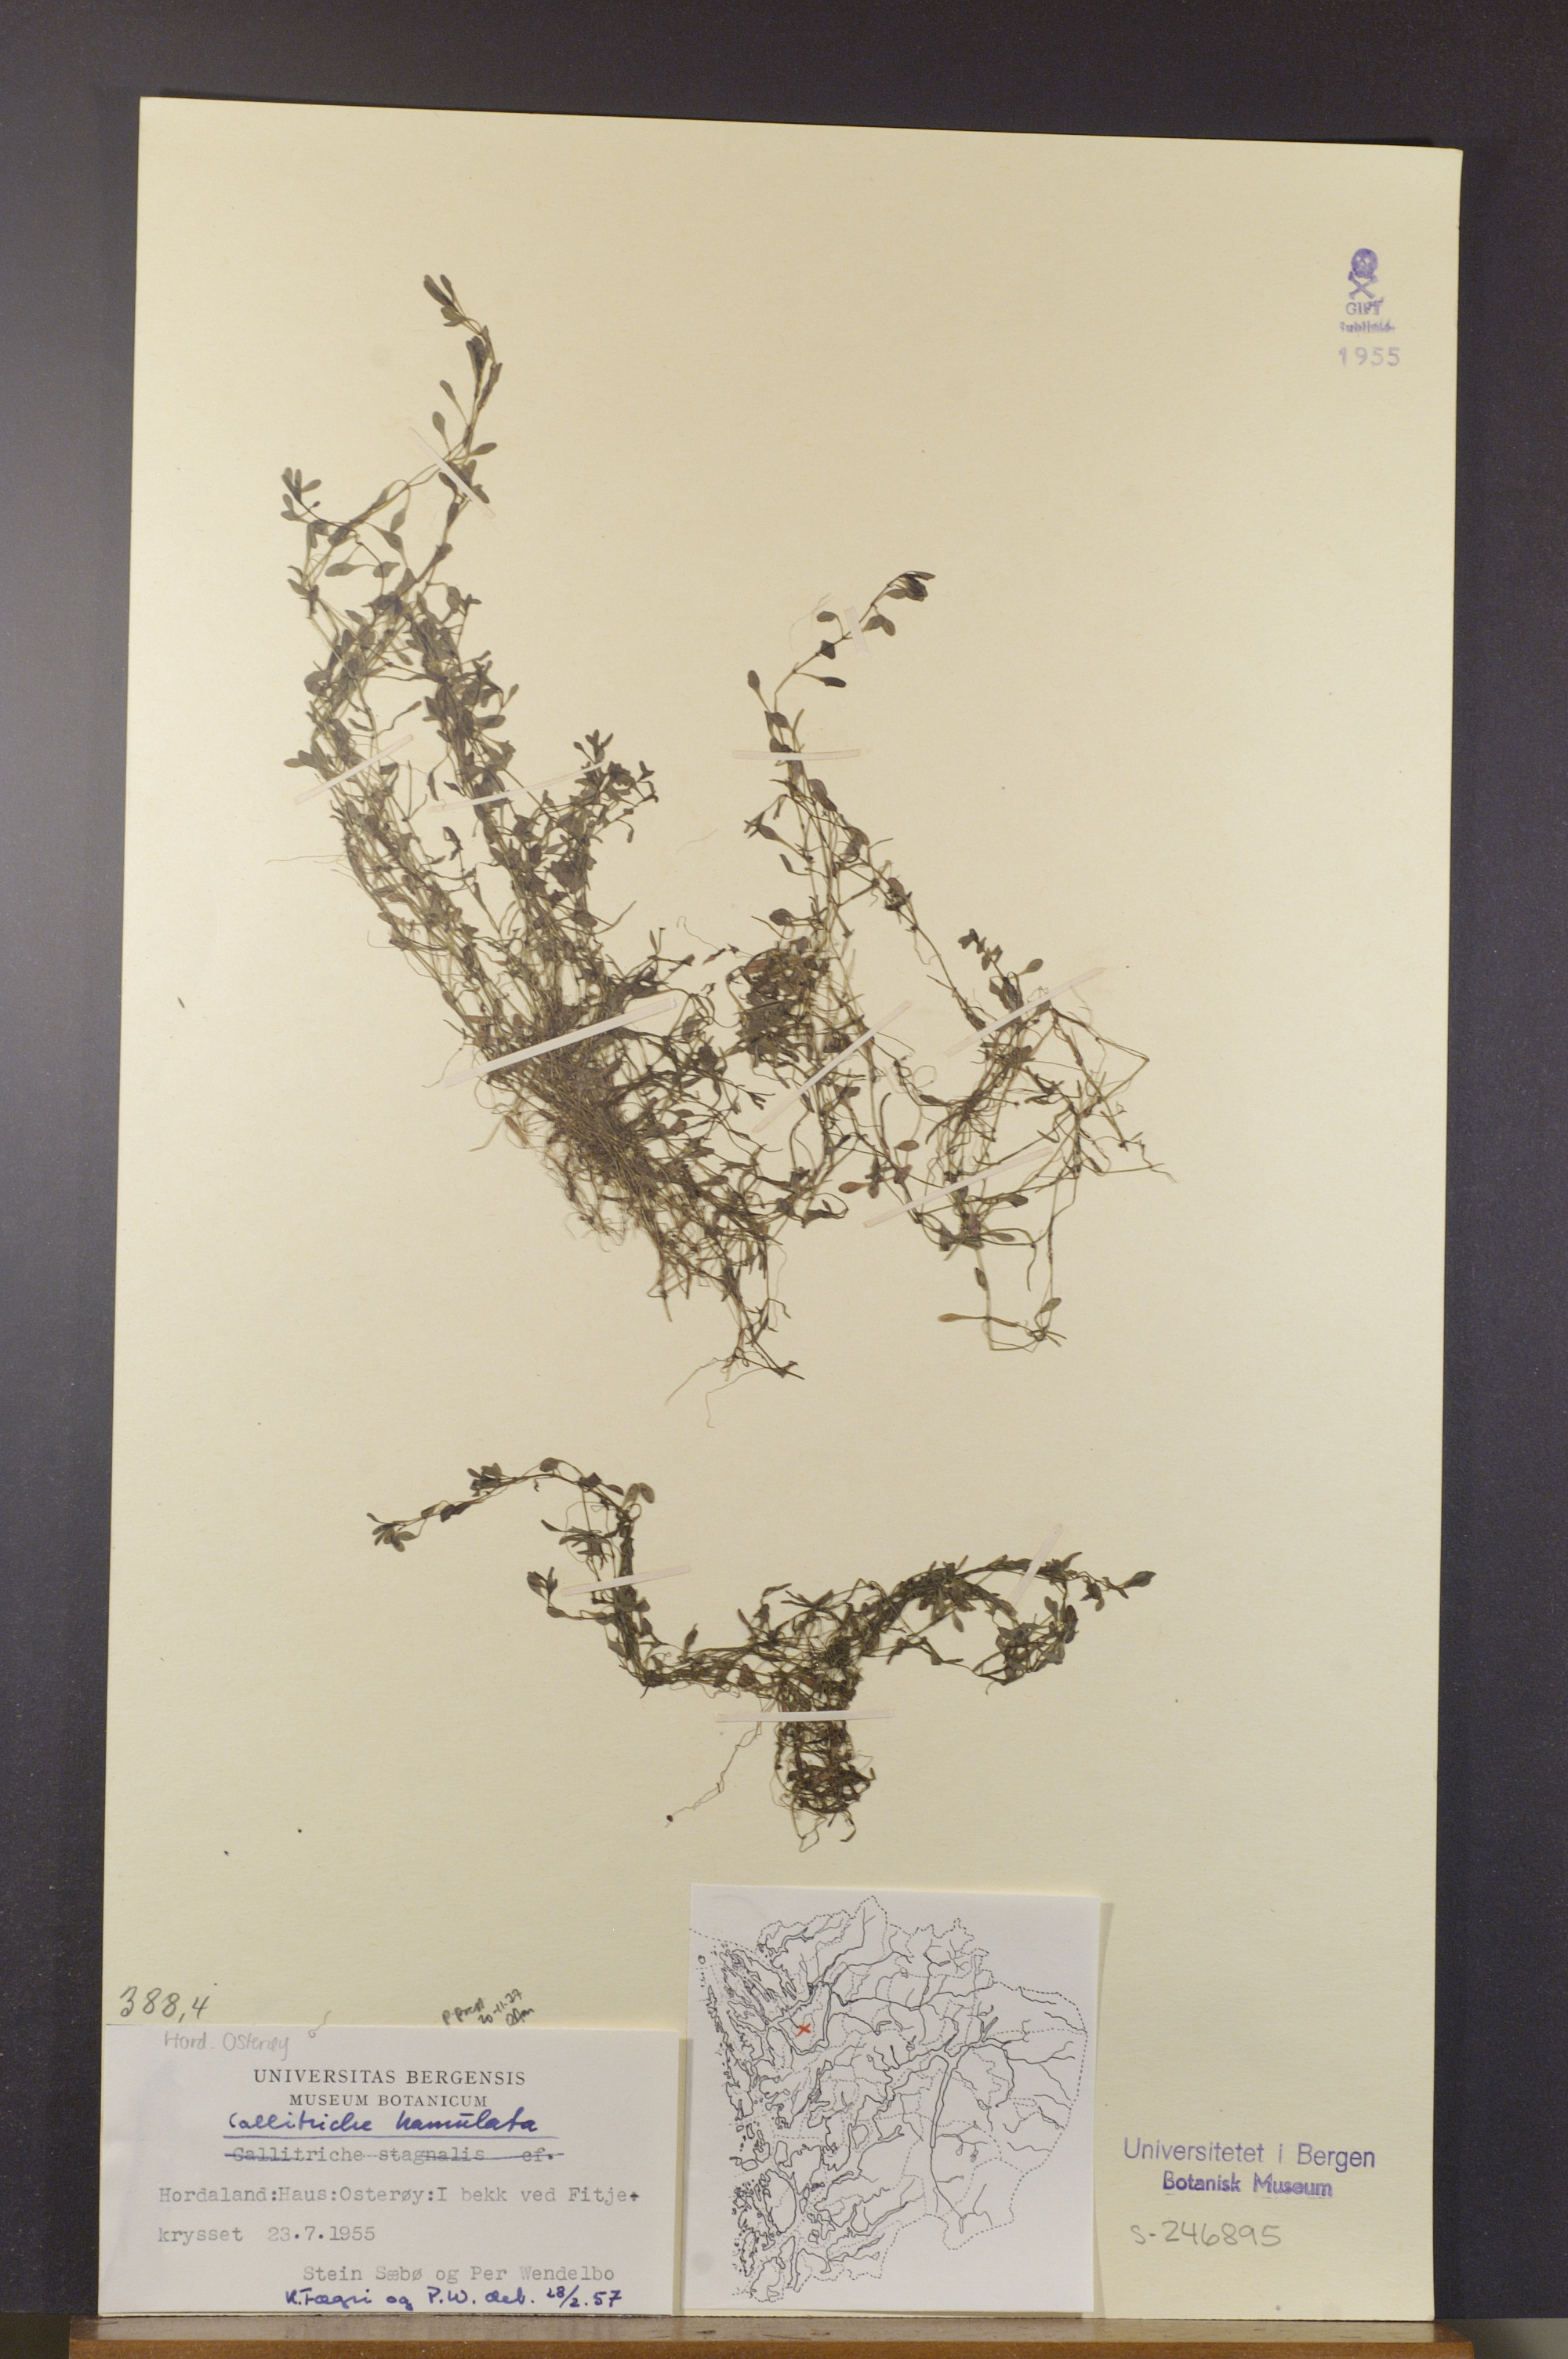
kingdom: Plantae
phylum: Tracheophyta
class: Magnoliopsida
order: Lamiales
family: Plantaginaceae
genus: Callitriche
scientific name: Callitriche hamulata
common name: Intermediate water-starwort
